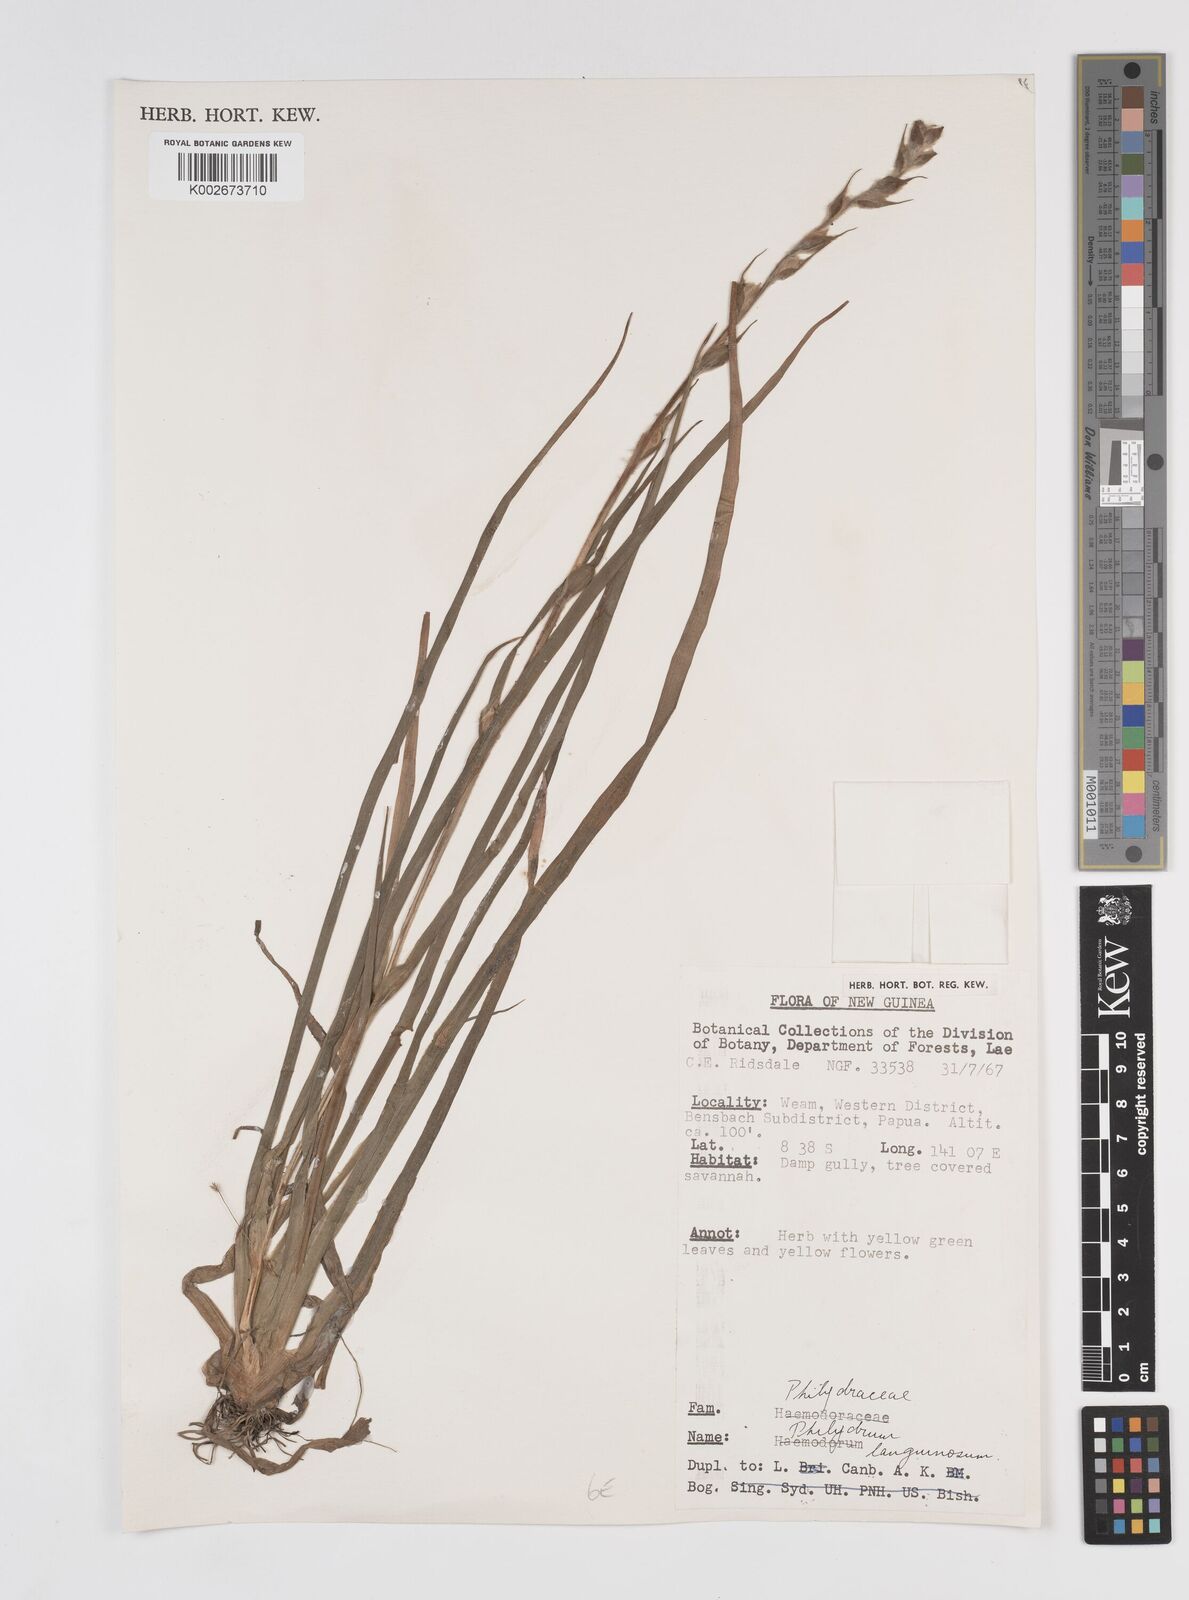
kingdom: Plantae
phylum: Tracheophyta
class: Liliopsida
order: Commelinales
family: Philydraceae
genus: Philydrum
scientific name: Philydrum lanuginosum
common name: Woolly frog's mouth
